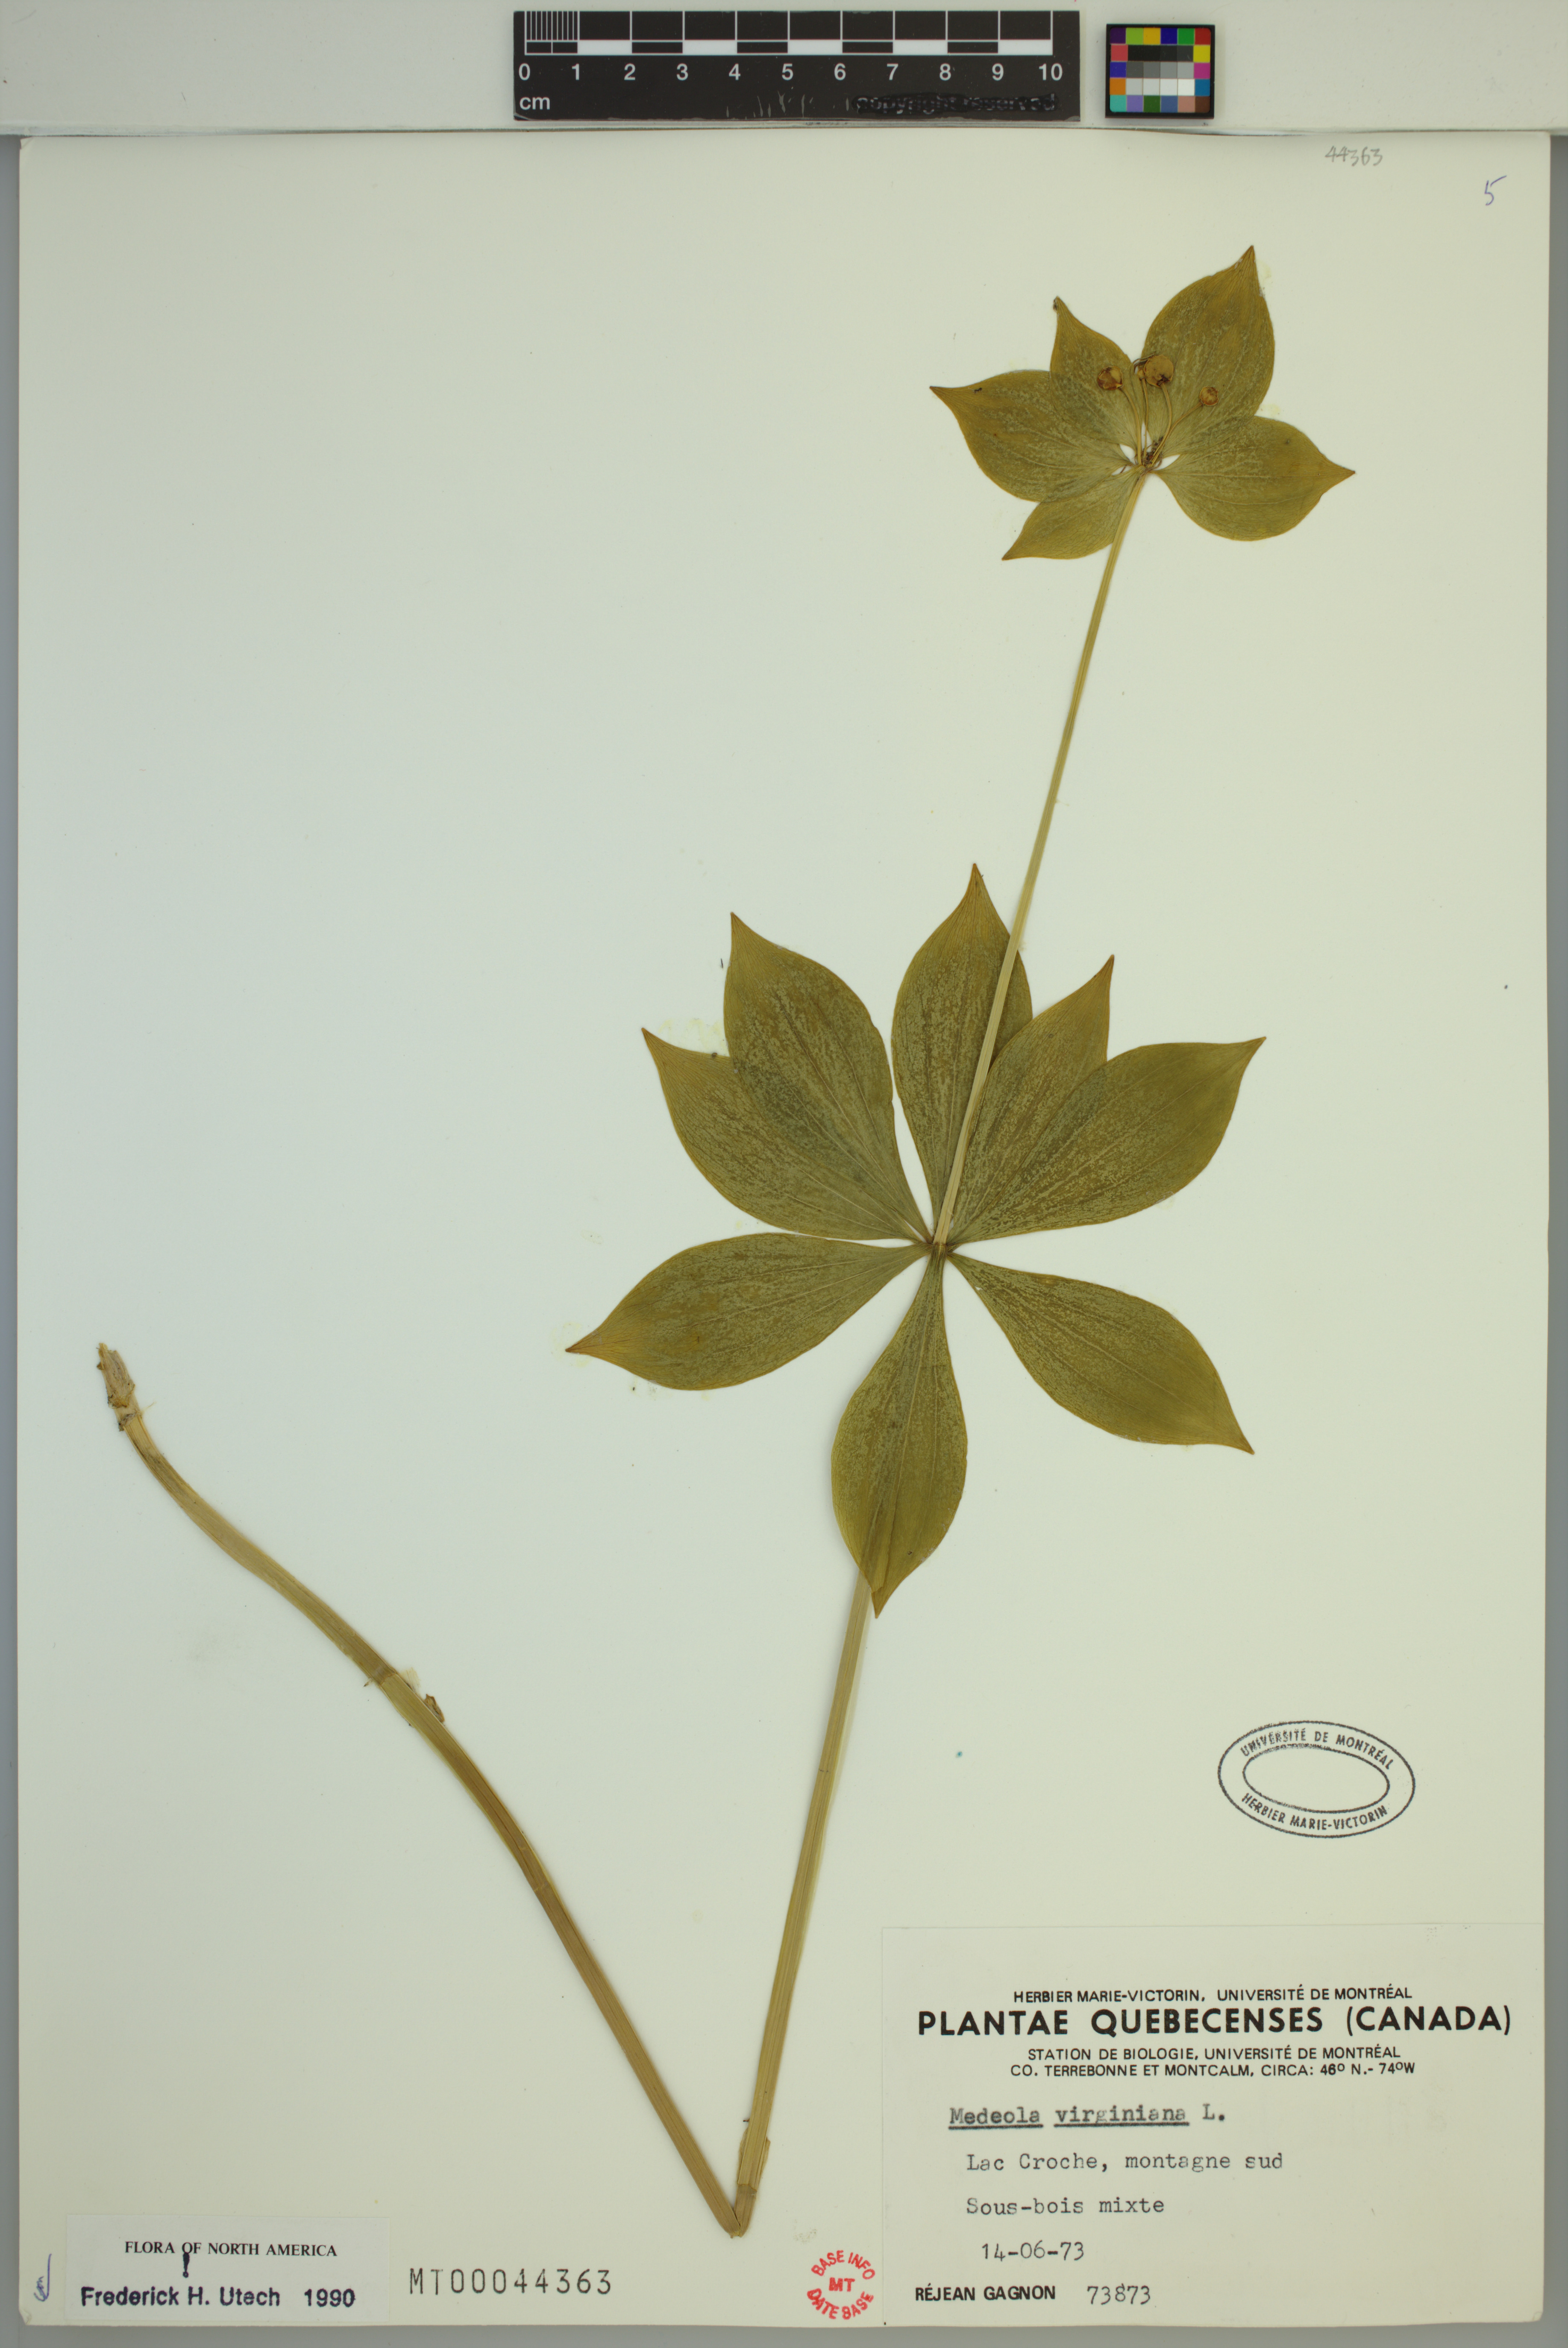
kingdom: Plantae
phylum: Tracheophyta
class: Liliopsida
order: Liliales
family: Liliaceae
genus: Medeola
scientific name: Medeola virginiana
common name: Indian cucumber-root
